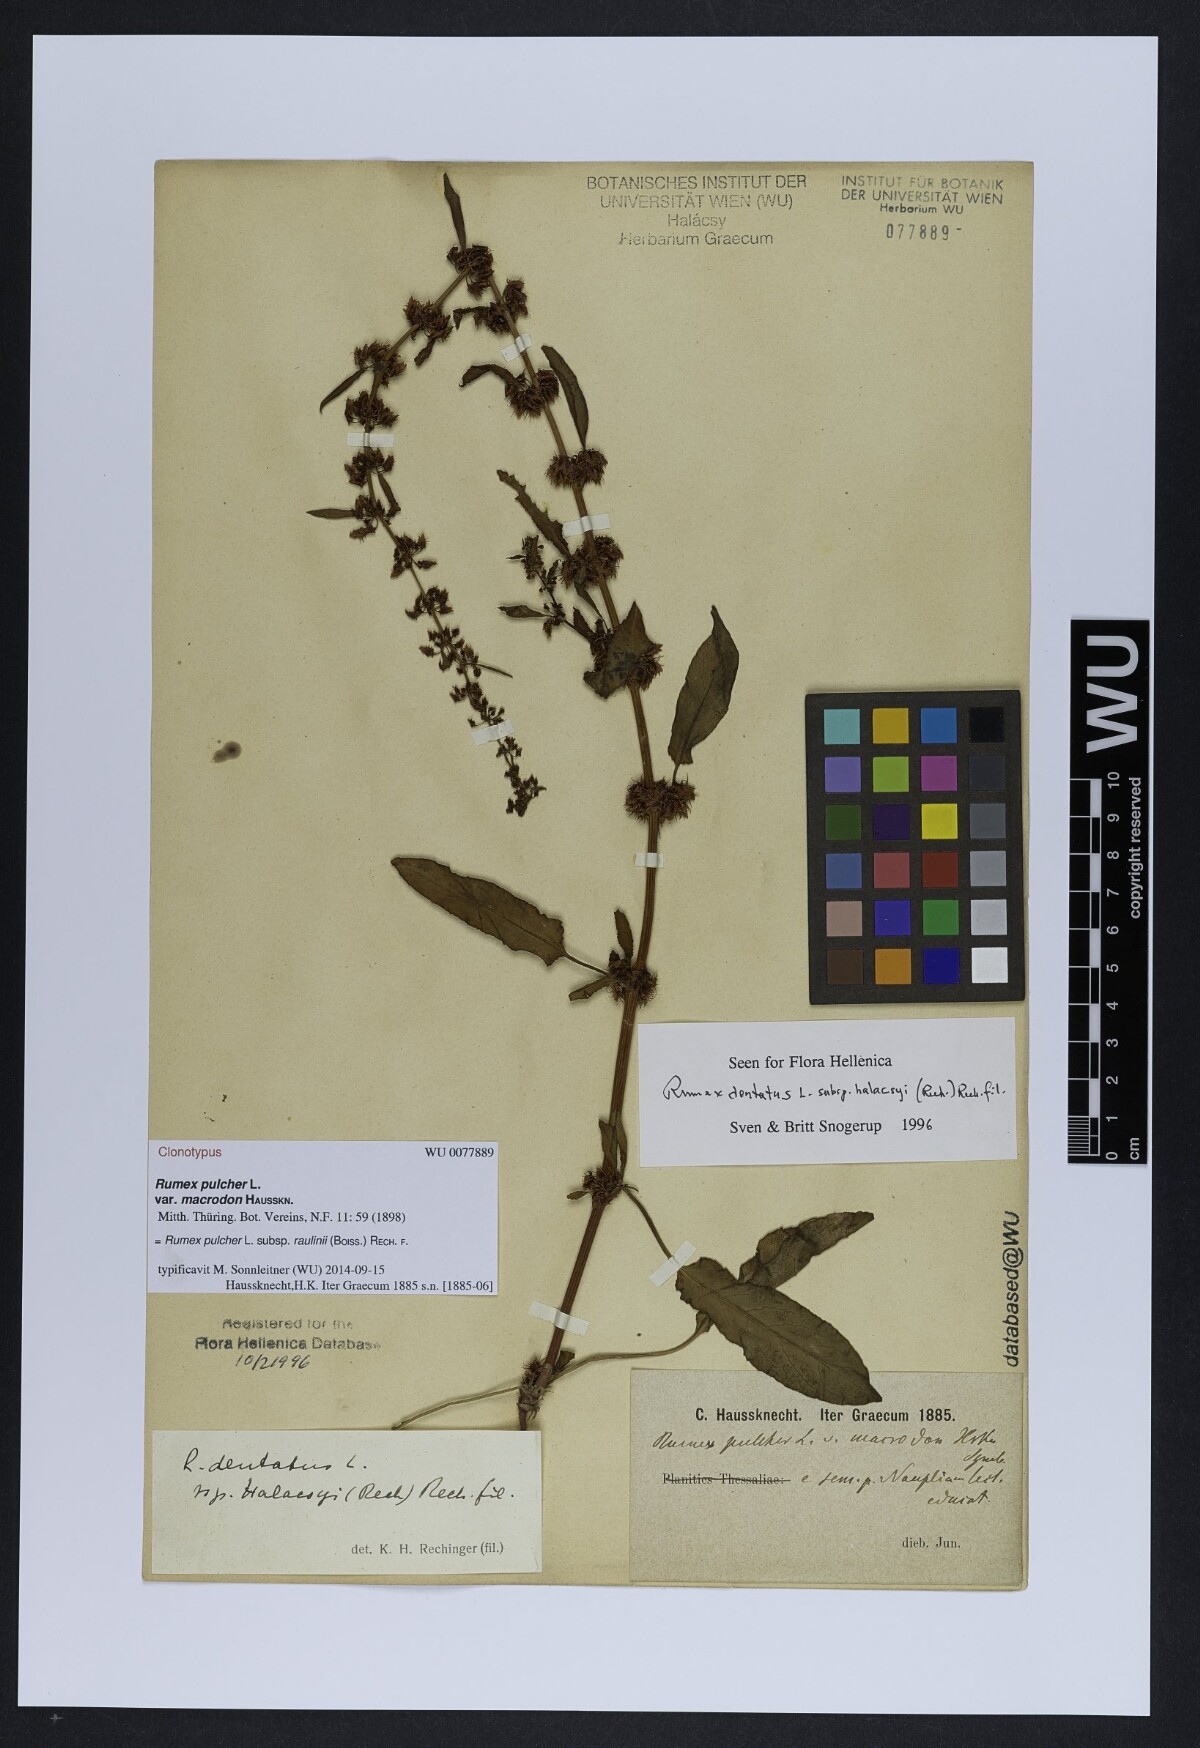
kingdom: Plantae
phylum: Tracheophyta
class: Magnoliopsida
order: Caryophyllales
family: Polygonaceae
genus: Rumex
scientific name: Rumex pulcher
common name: Fiddle dock
